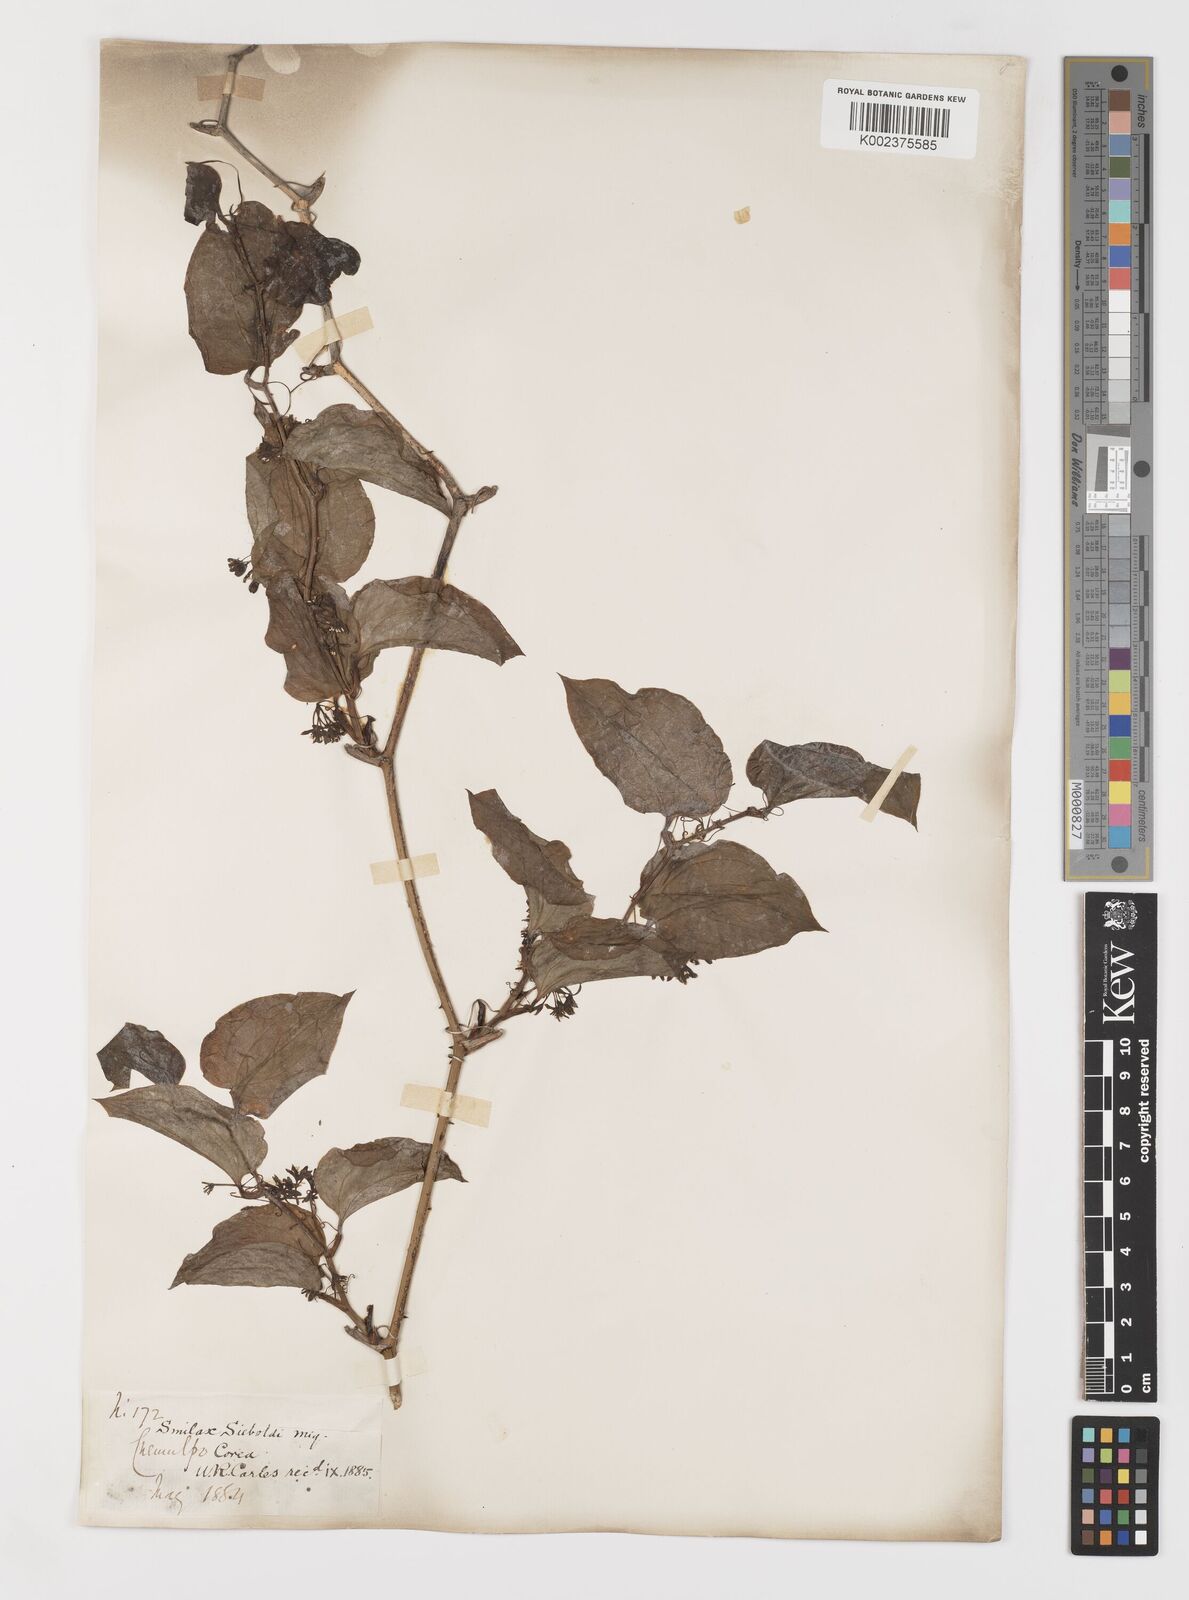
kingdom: Plantae
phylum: Tracheophyta
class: Liliopsida
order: Liliales
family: Smilacaceae
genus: Smilax
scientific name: Smilax sieboldii
